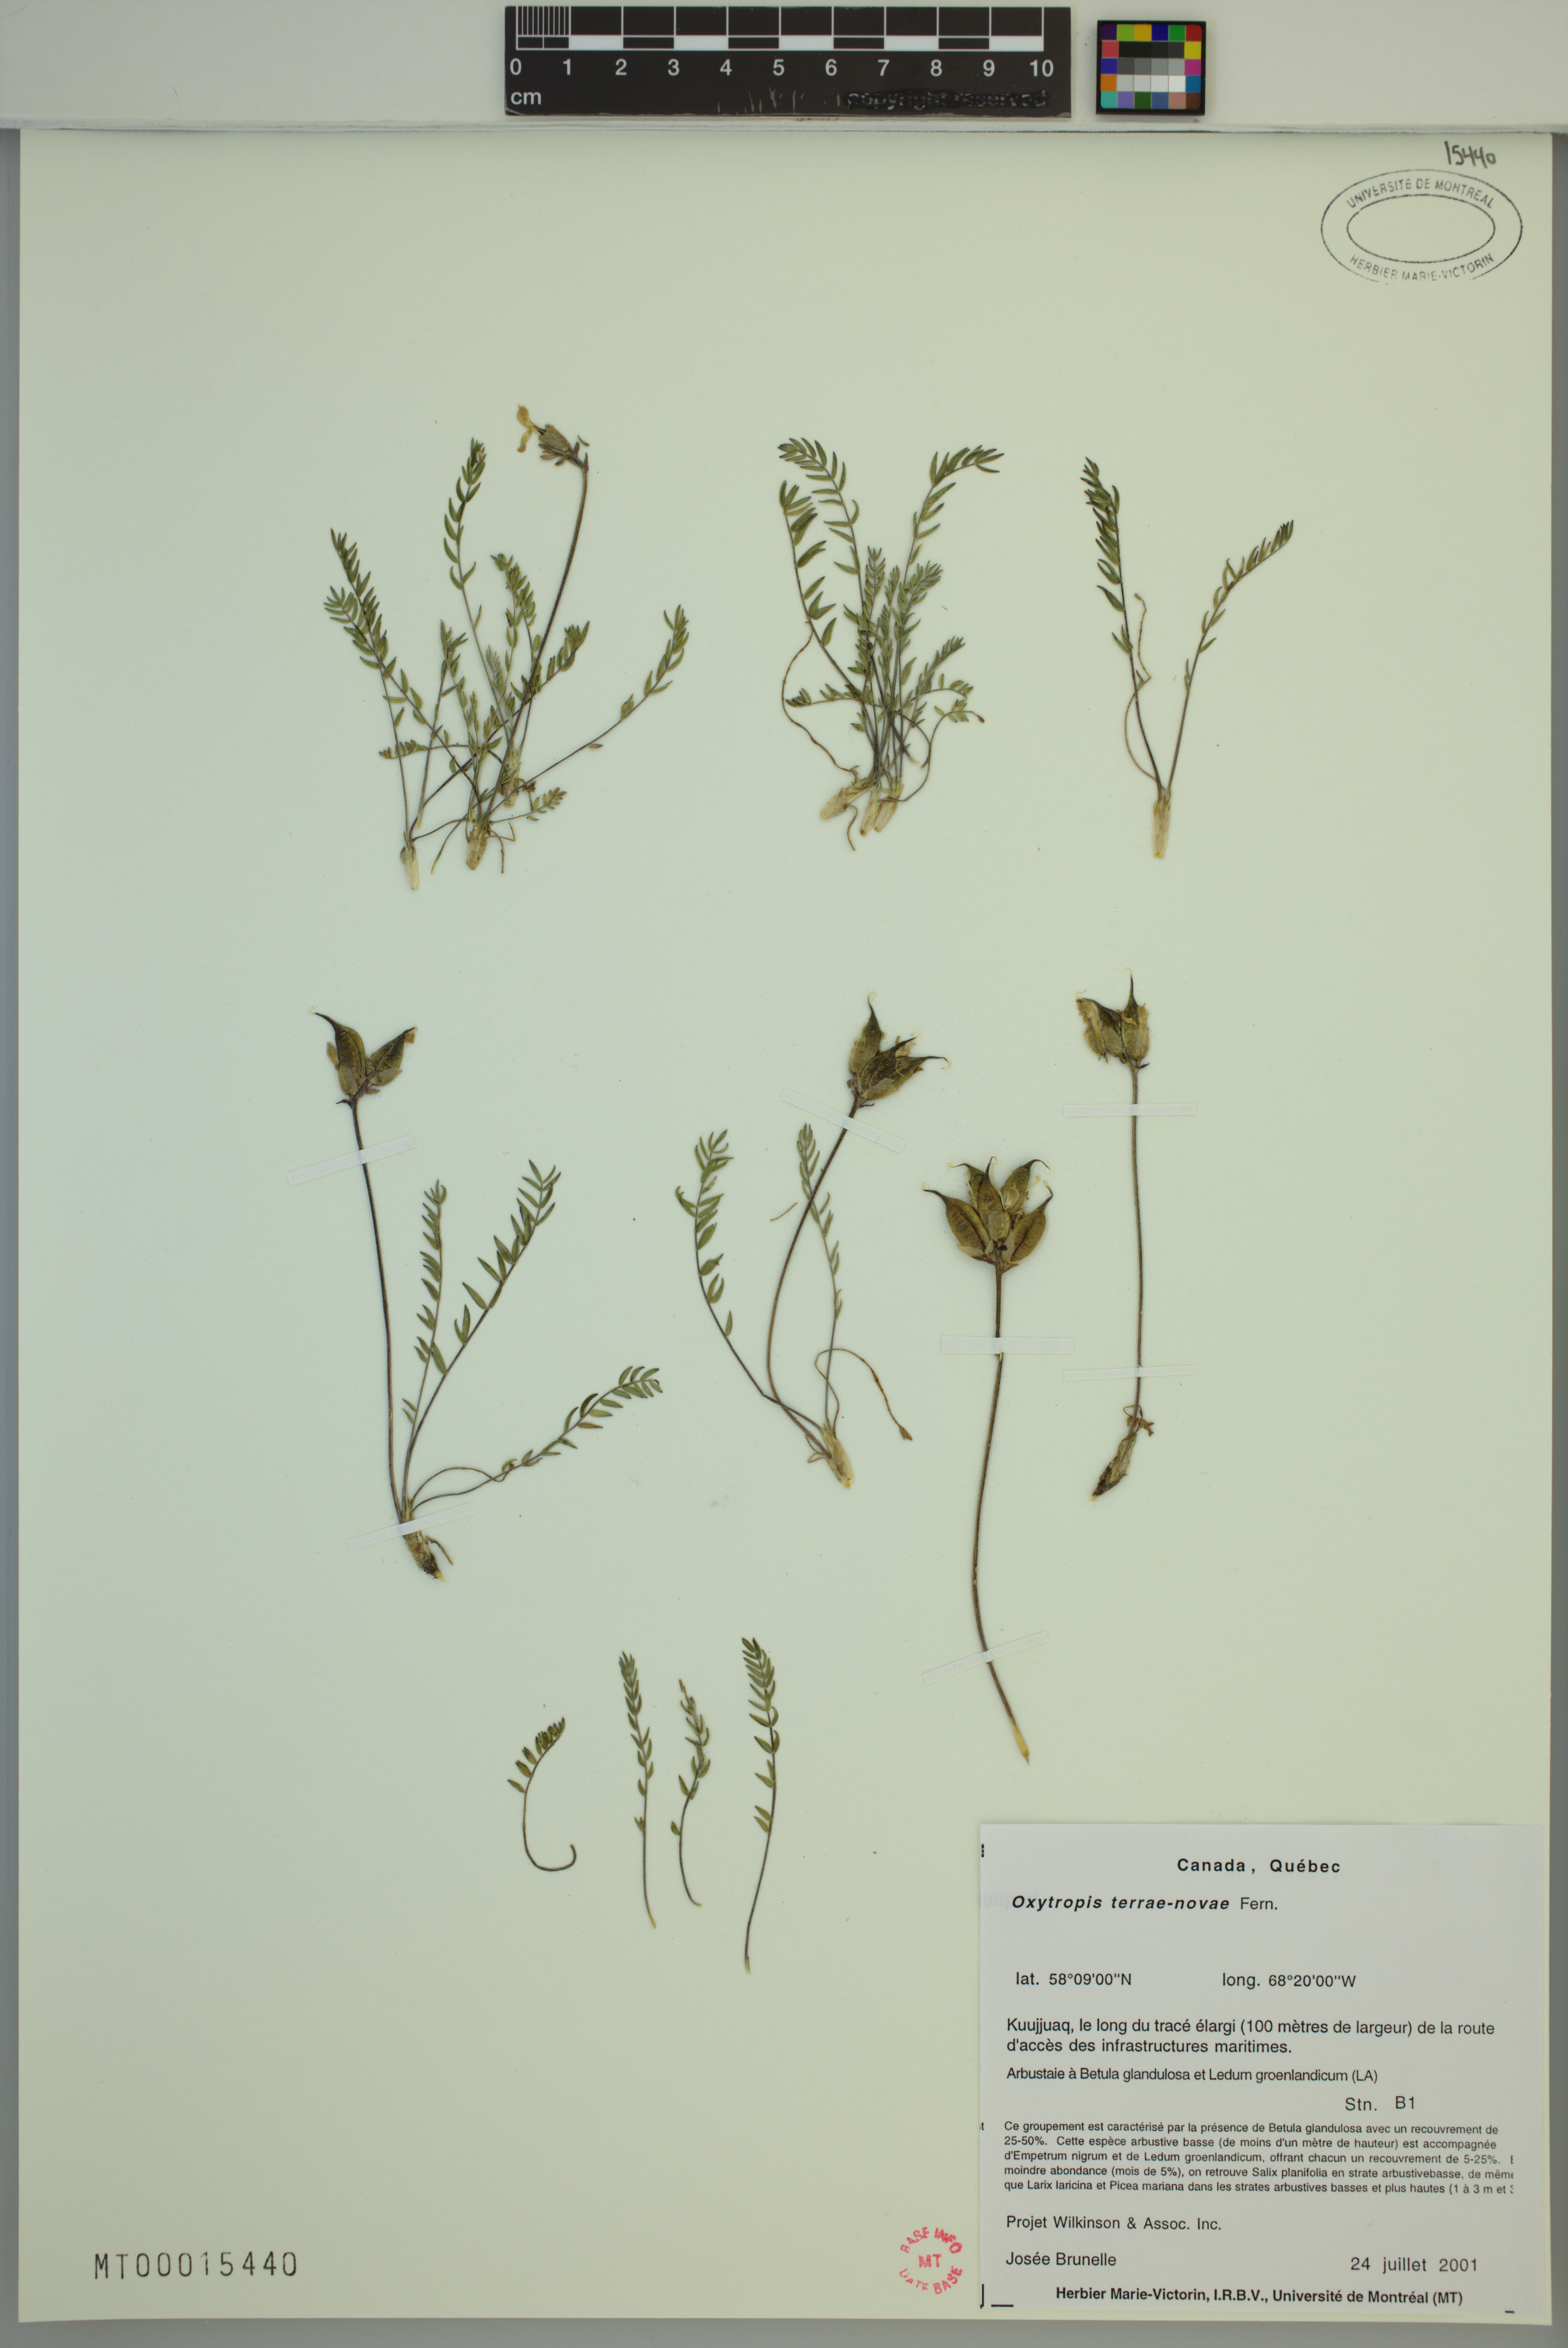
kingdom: Plantae
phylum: Tracheophyta
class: Magnoliopsida
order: Fabales
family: Fabaceae
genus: Oxytropis
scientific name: Oxytropis campestris
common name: Field locoweed
